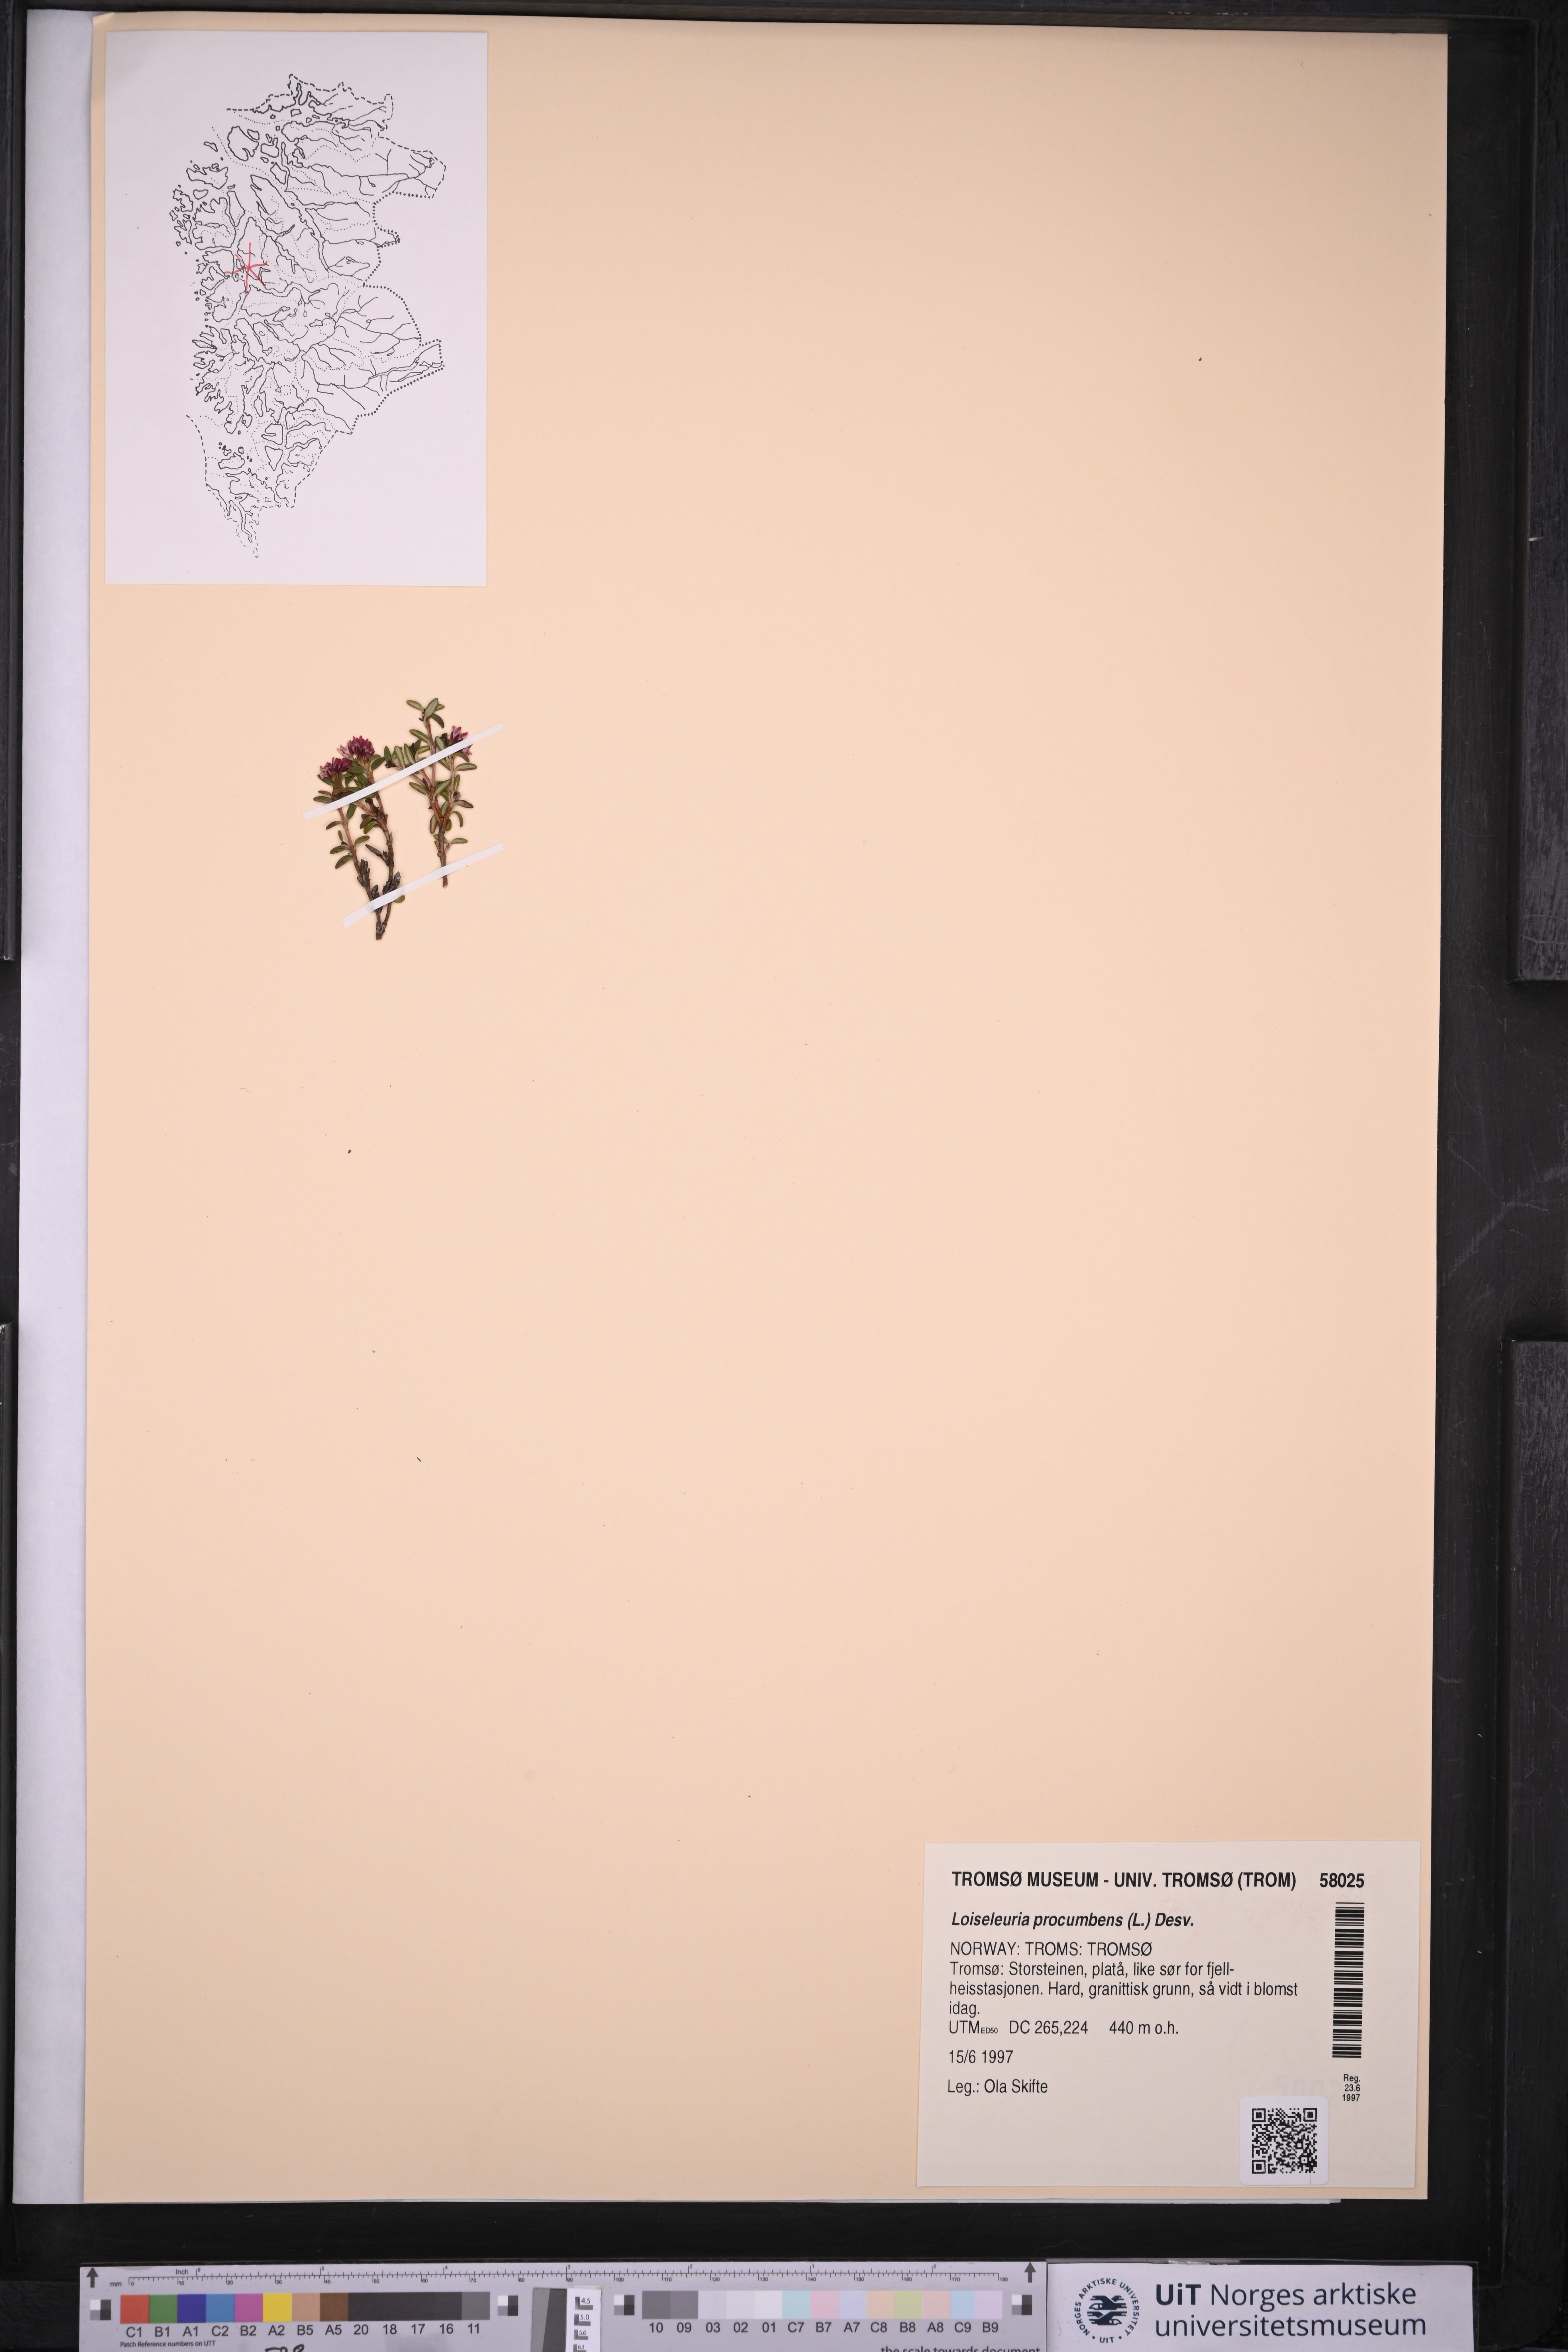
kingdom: Plantae
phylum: Tracheophyta
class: Magnoliopsida
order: Ericales
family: Ericaceae
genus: Kalmia
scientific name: Kalmia procumbens
